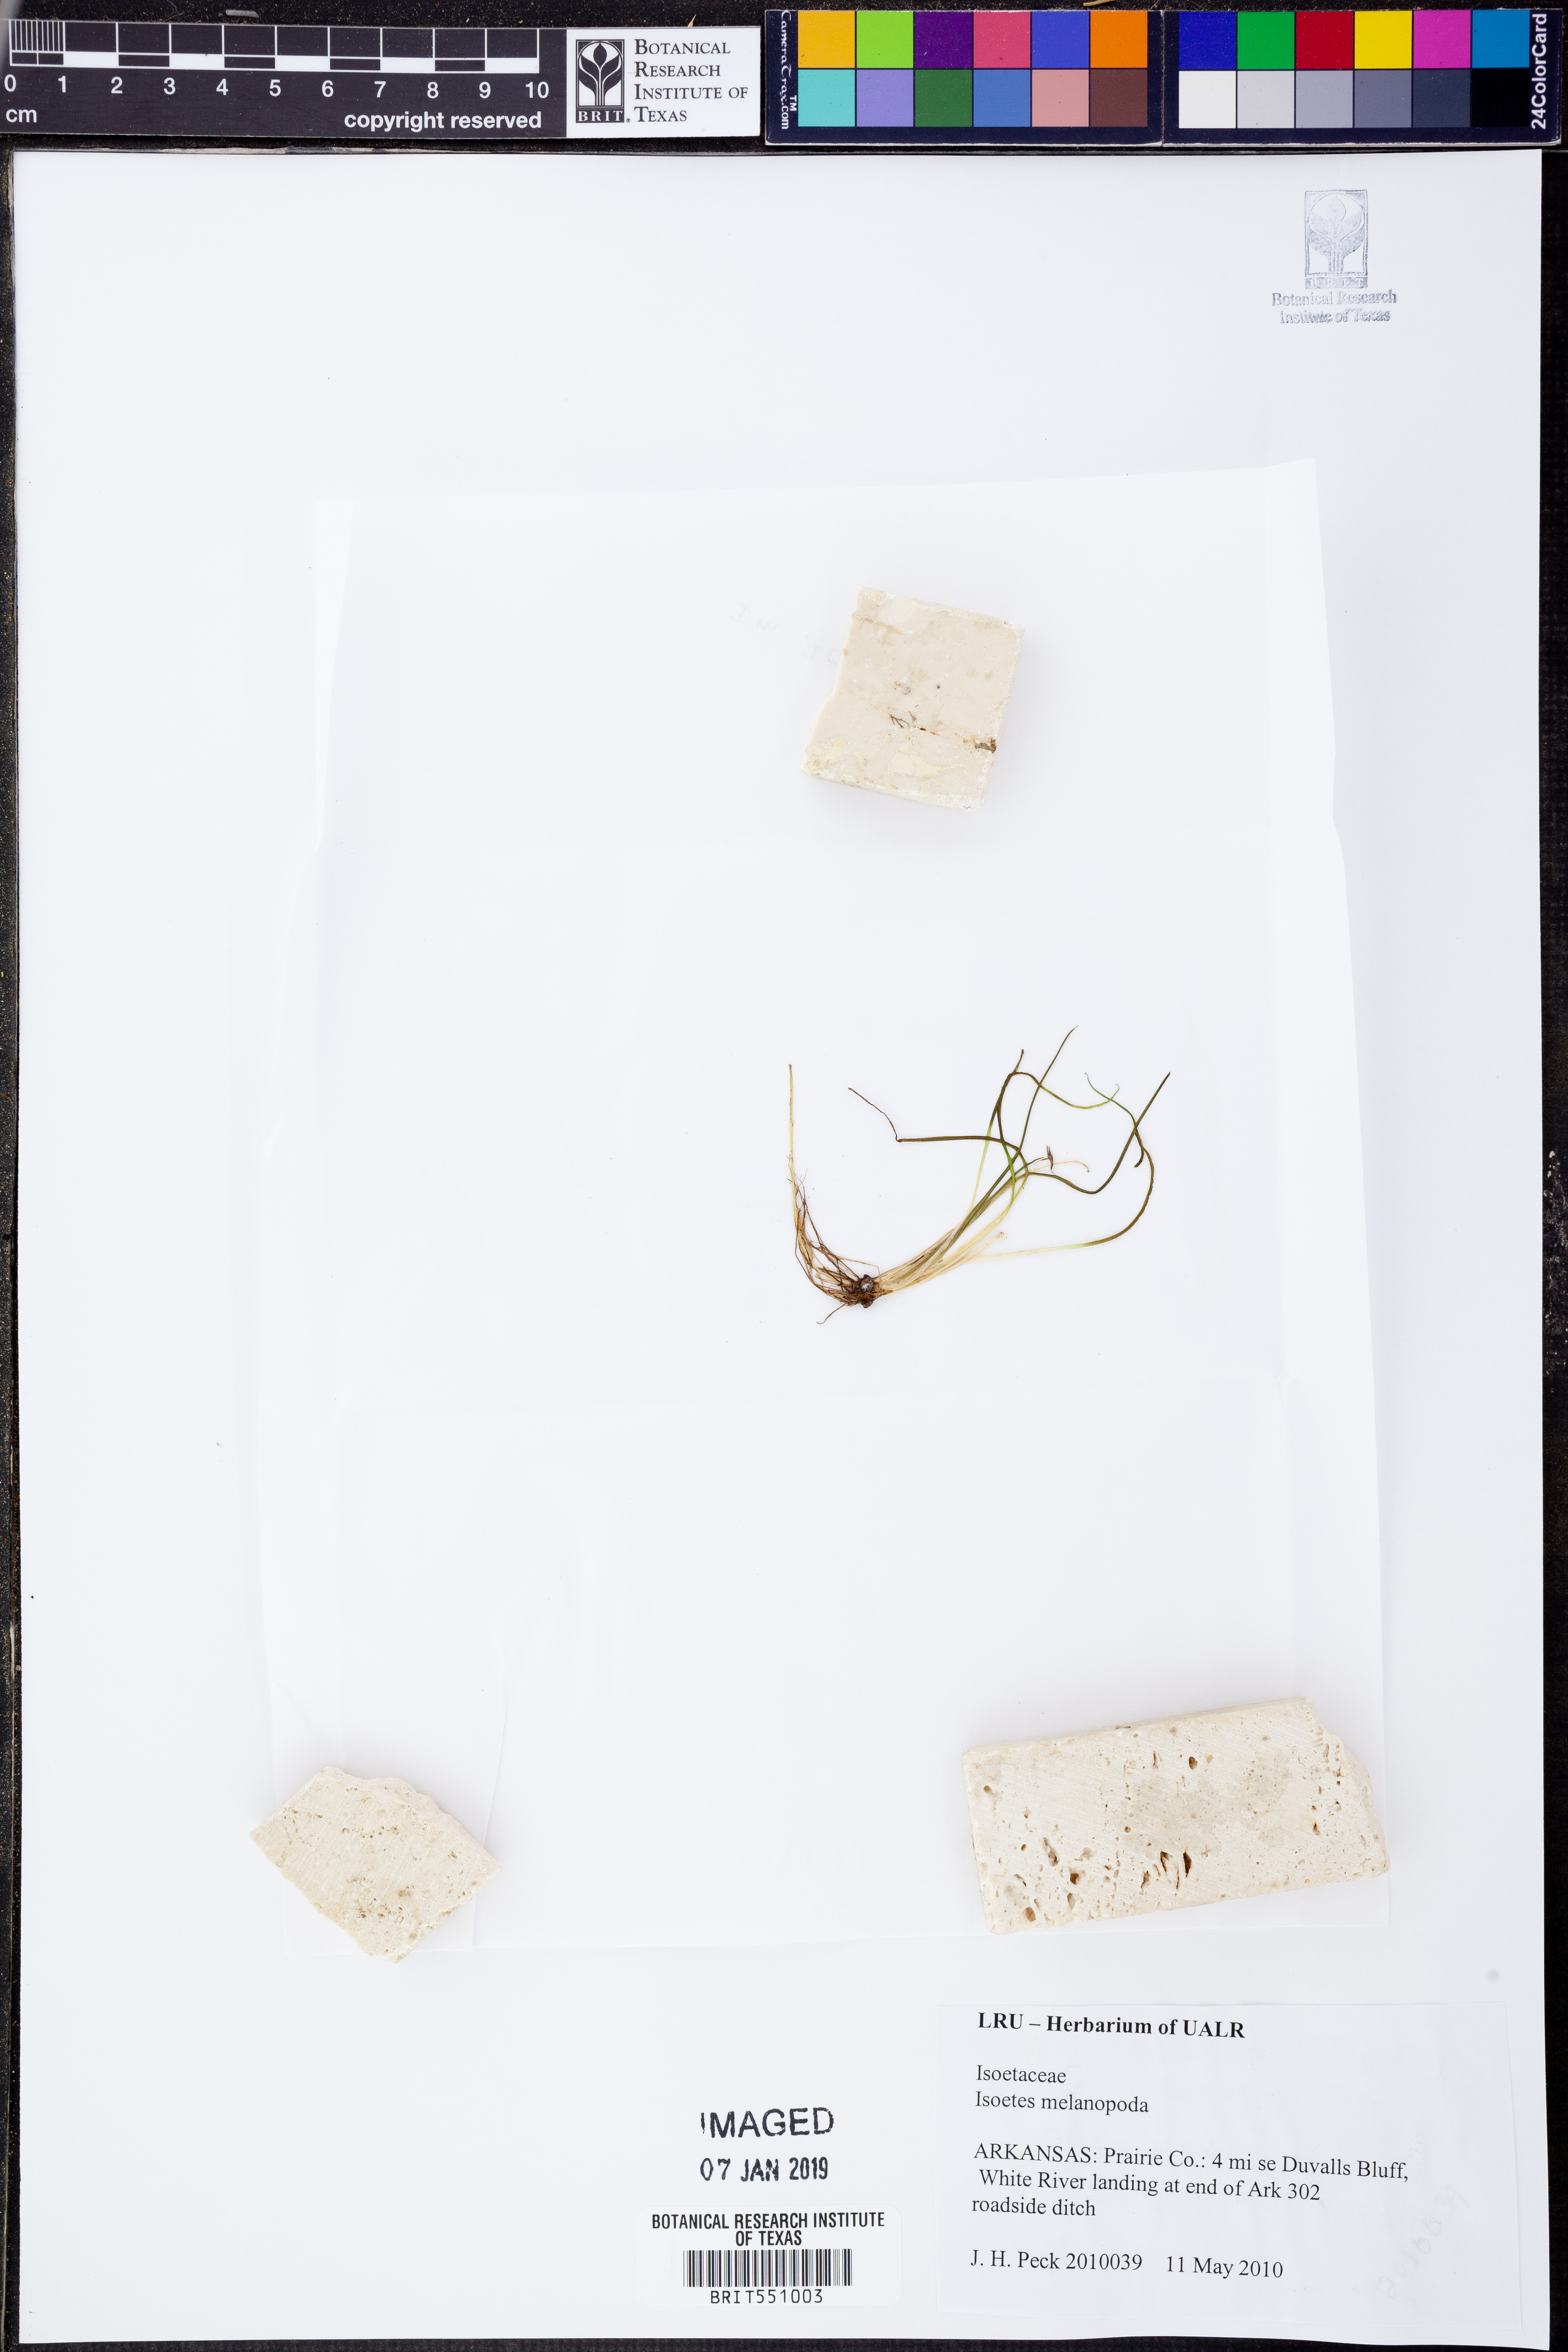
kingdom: Plantae
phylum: Tracheophyta
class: Lycopodiopsida
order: Isoetales
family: Isoetaceae
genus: Isoetes
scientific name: Isoetes melanopoda
